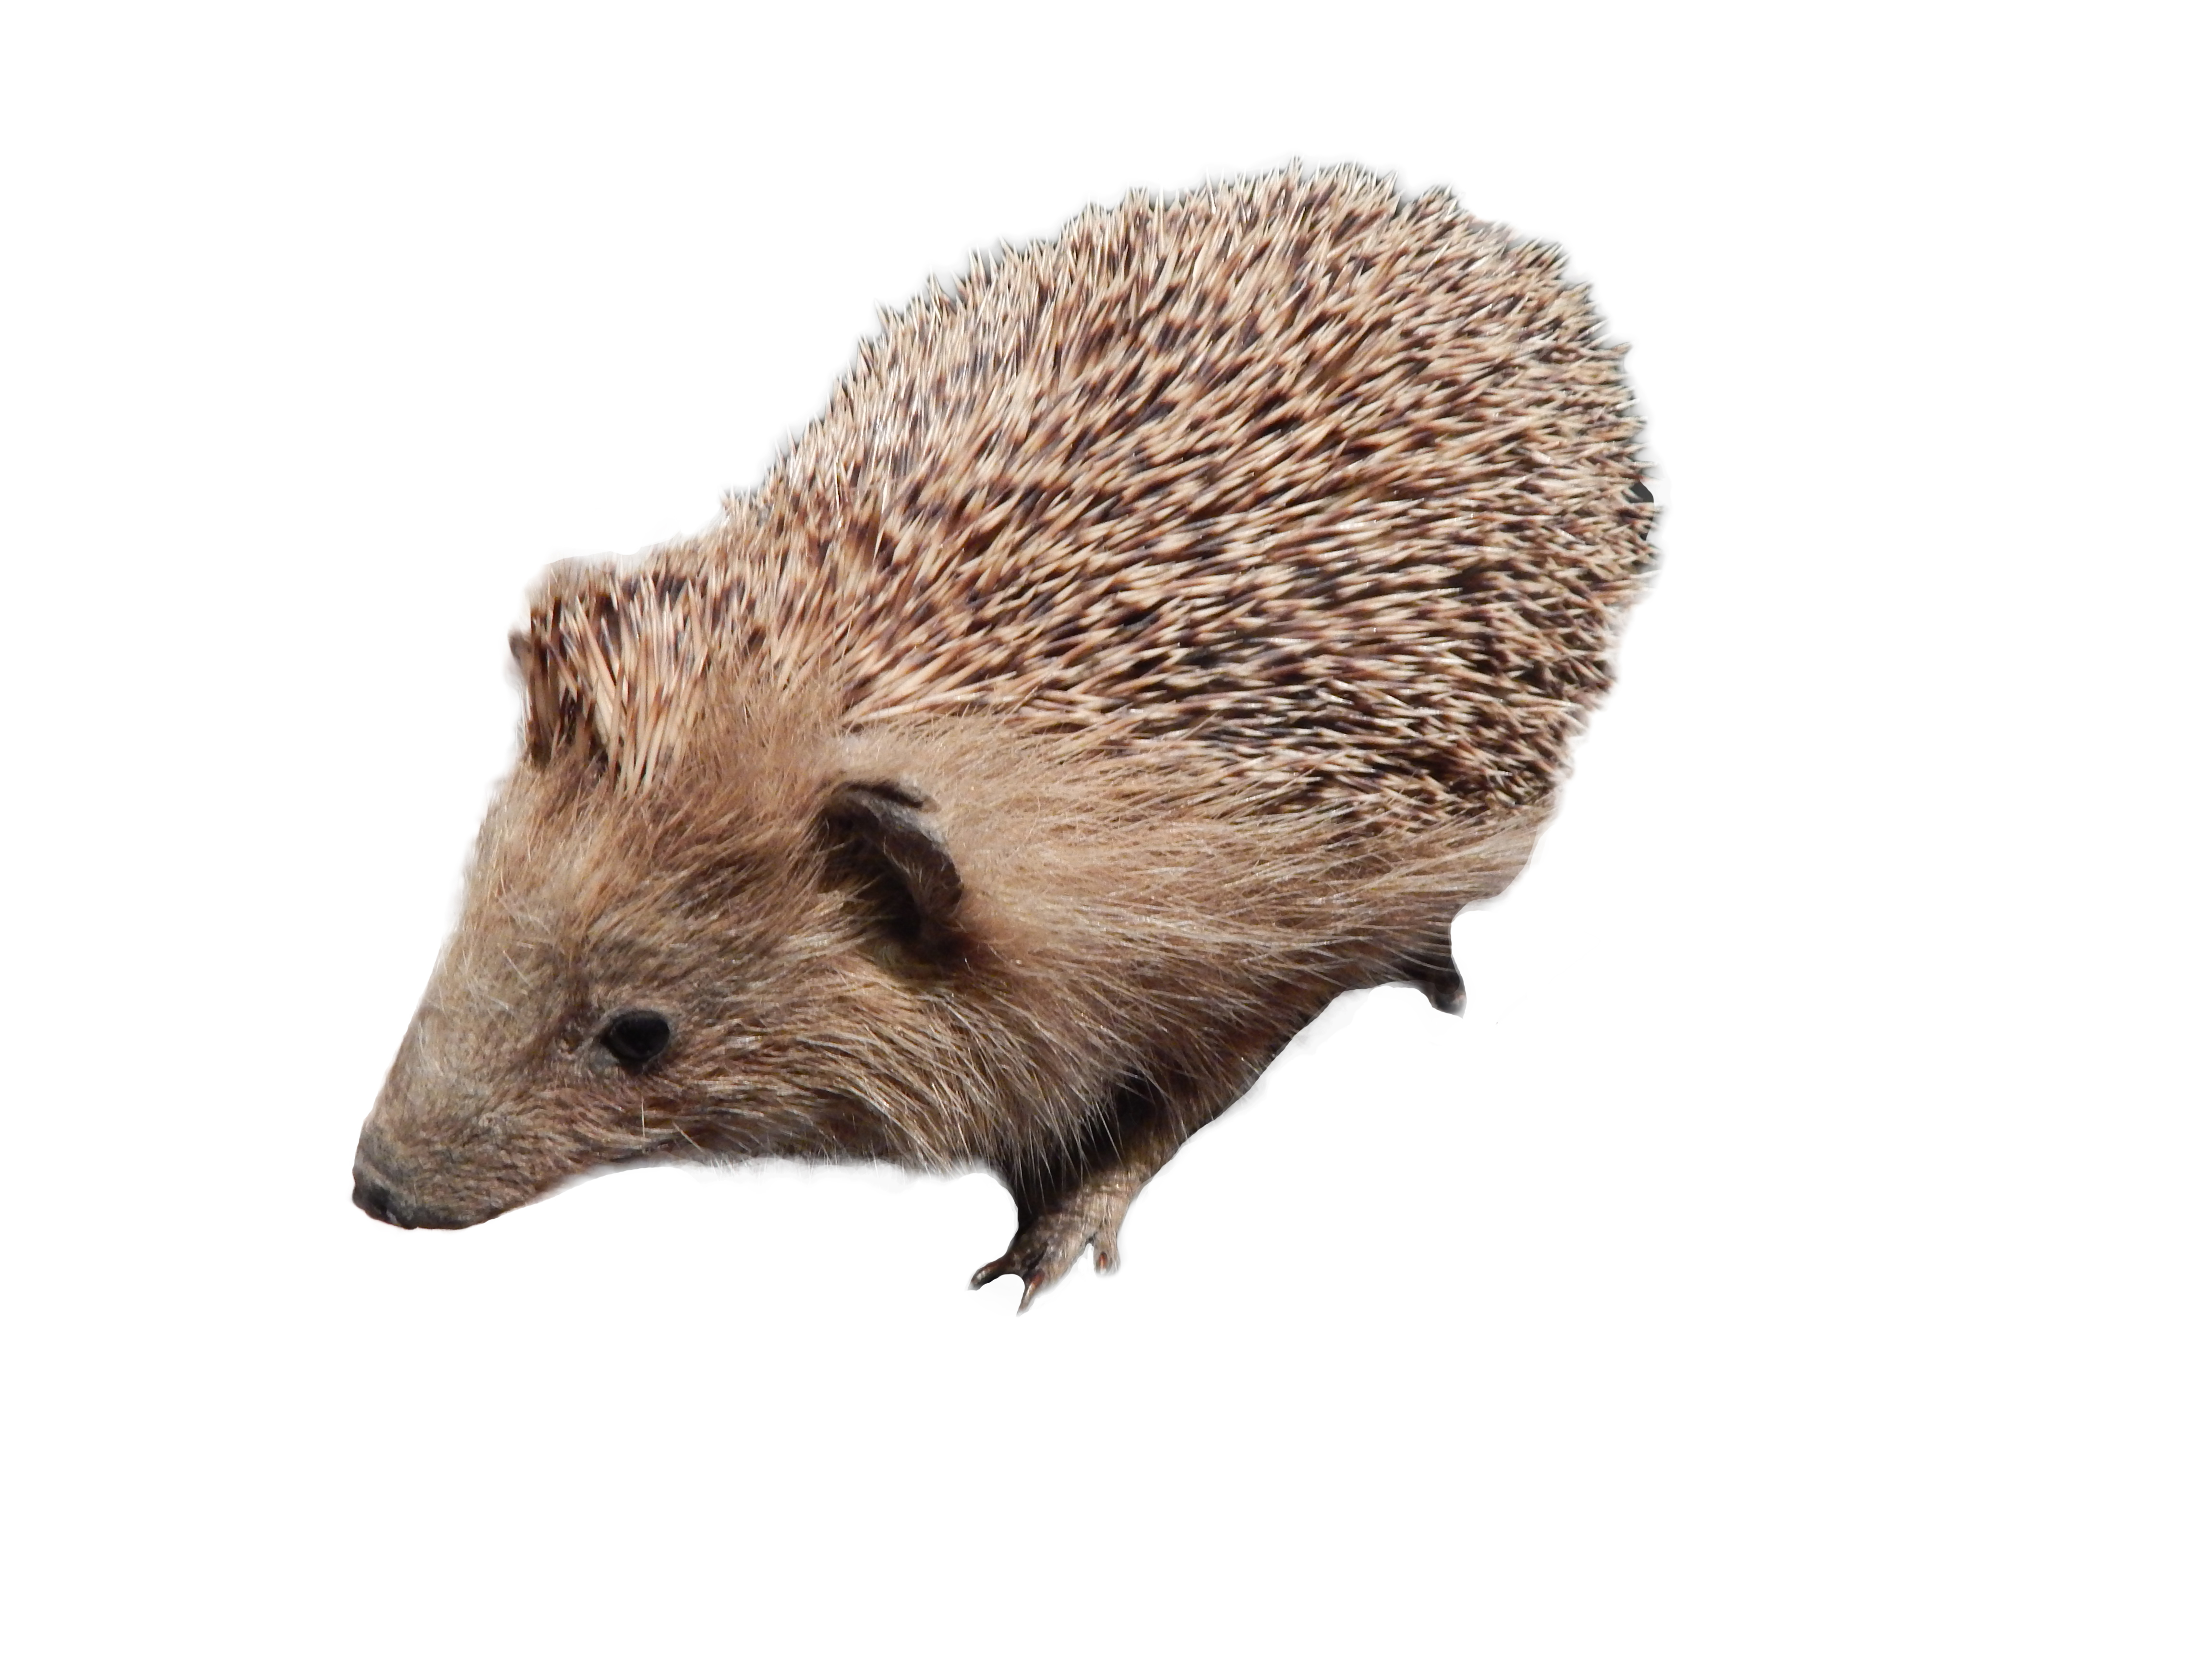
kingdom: Animalia
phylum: Chordata
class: Mammalia
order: Erinaceomorpha
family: Erinaceidae
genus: Erinaceus
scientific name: Erinaceus europaeus
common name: West european hedgehog
